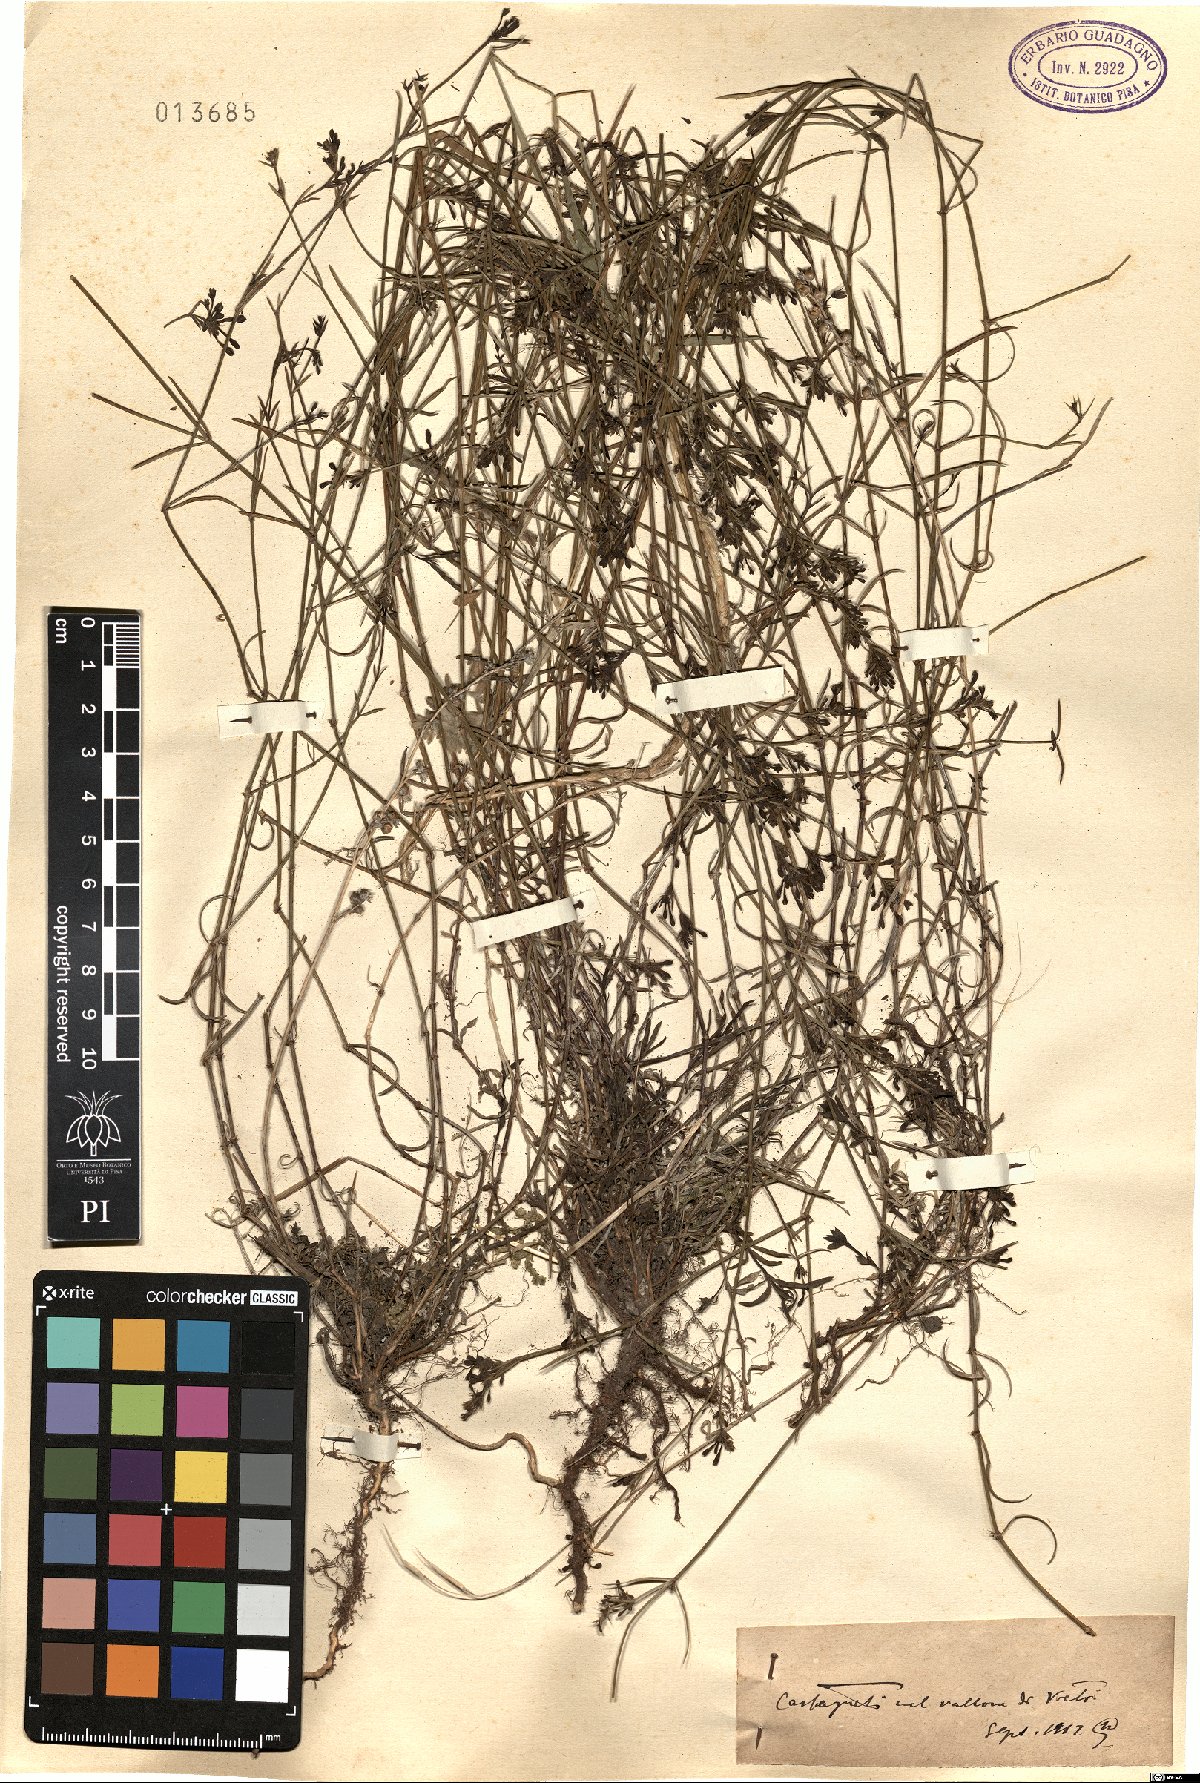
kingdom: Plantae
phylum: Tracheophyta
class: Magnoliopsida
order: Gentianales
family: Rubiaceae
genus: Asperula
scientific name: Asperula
